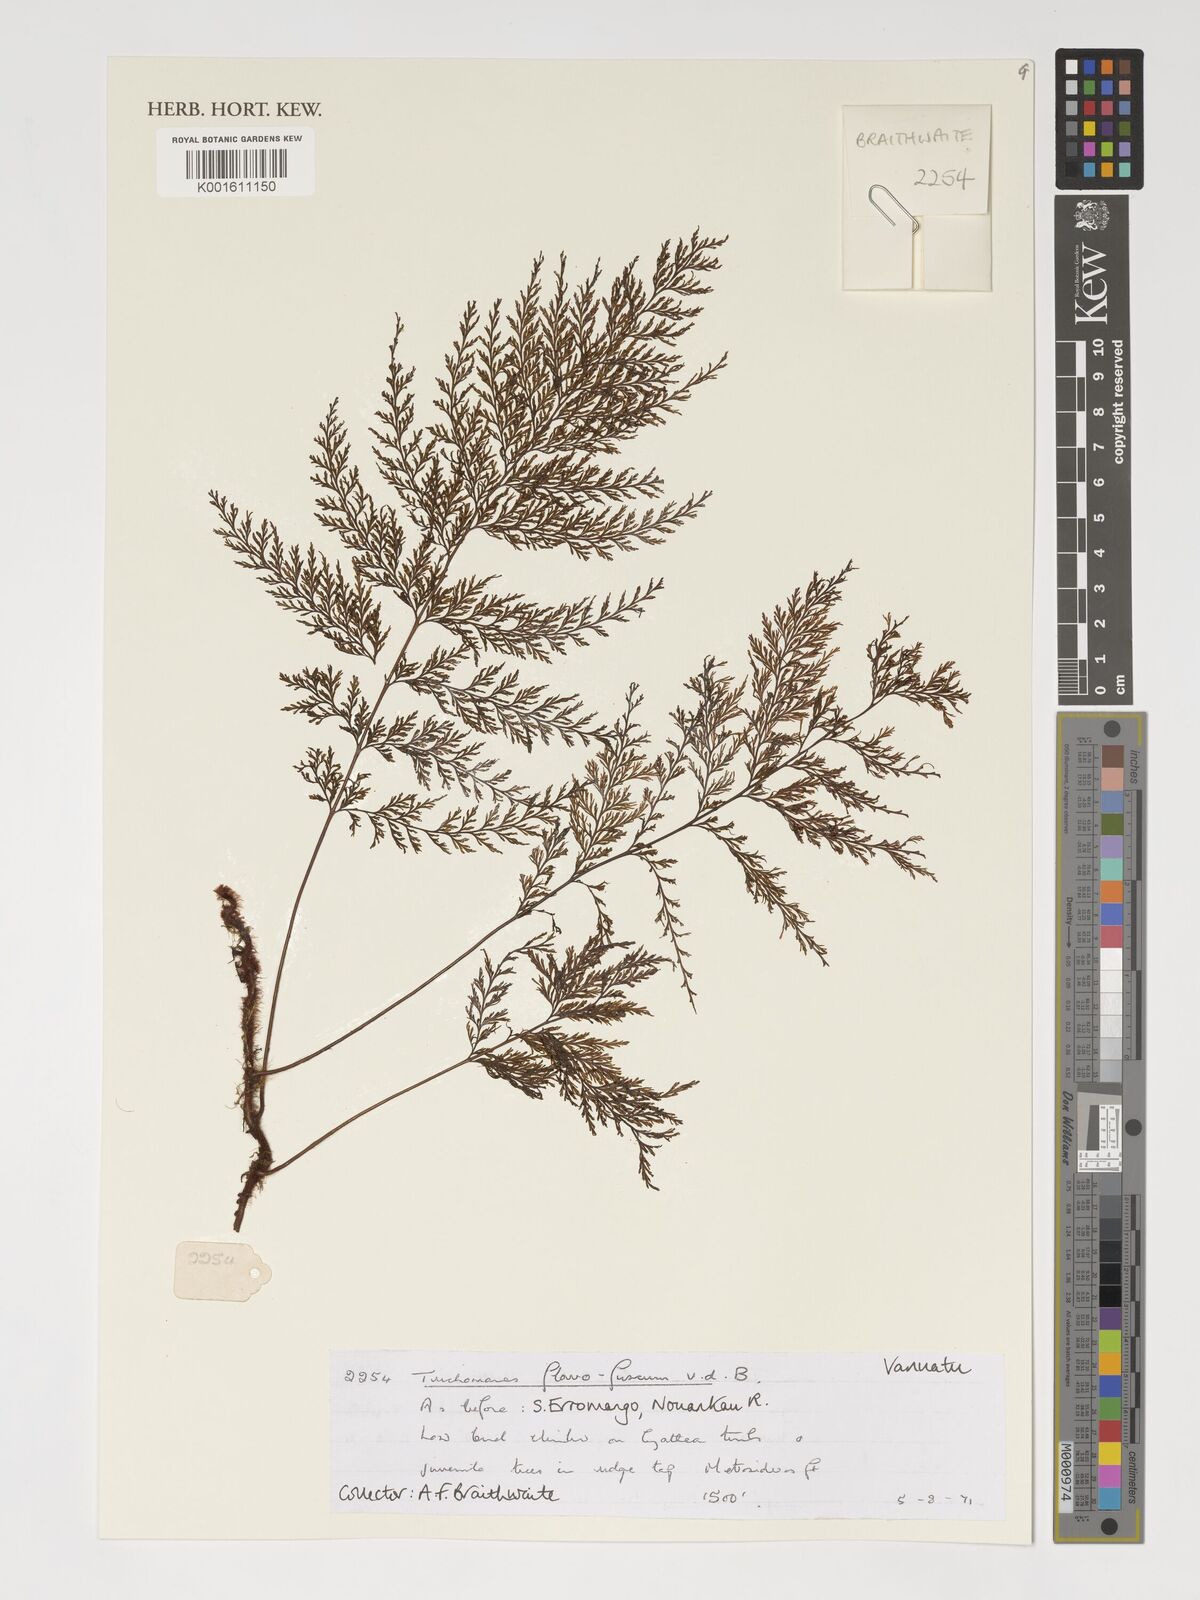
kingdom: Plantae
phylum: Tracheophyta
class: Polypodiopsida
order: Hymenophyllales
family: Hymenophyllaceae
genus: Abrodictyum
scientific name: Abrodictyum flavofuscum
